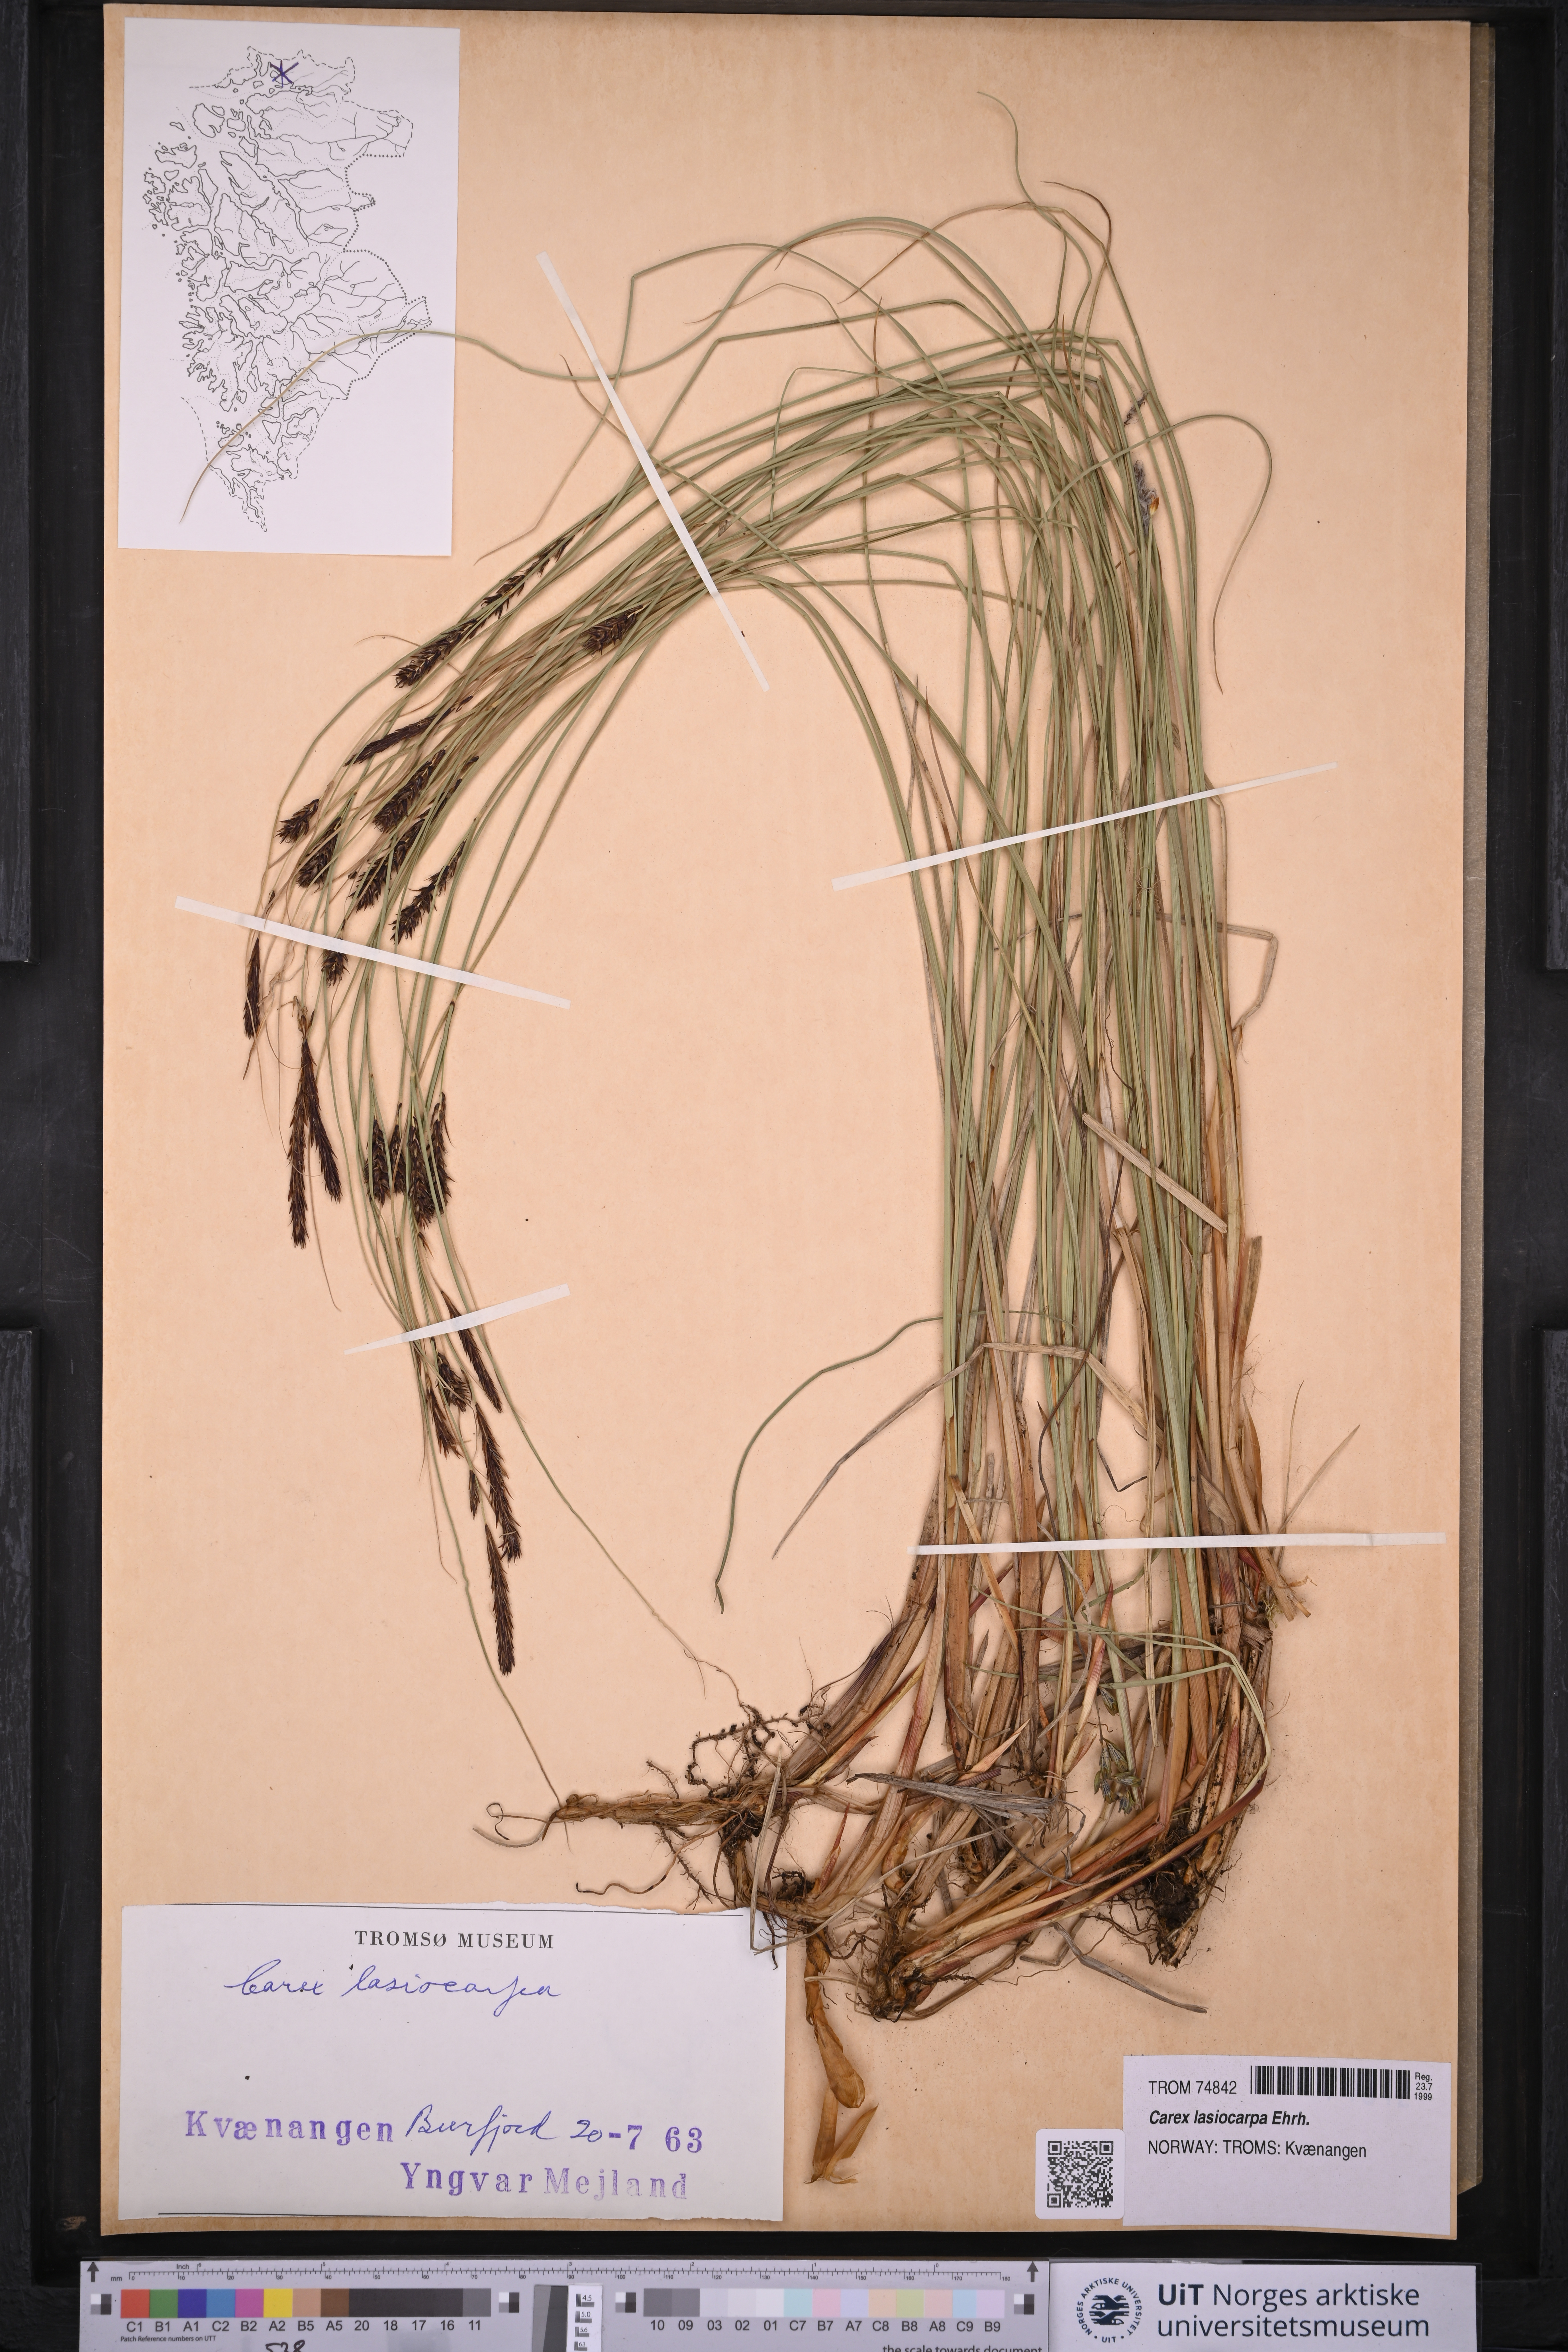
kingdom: Plantae
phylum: Tracheophyta
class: Liliopsida
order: Poales
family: Cyperaceae
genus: Carex
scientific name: Carex lasiocarpa
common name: Slender sedge
